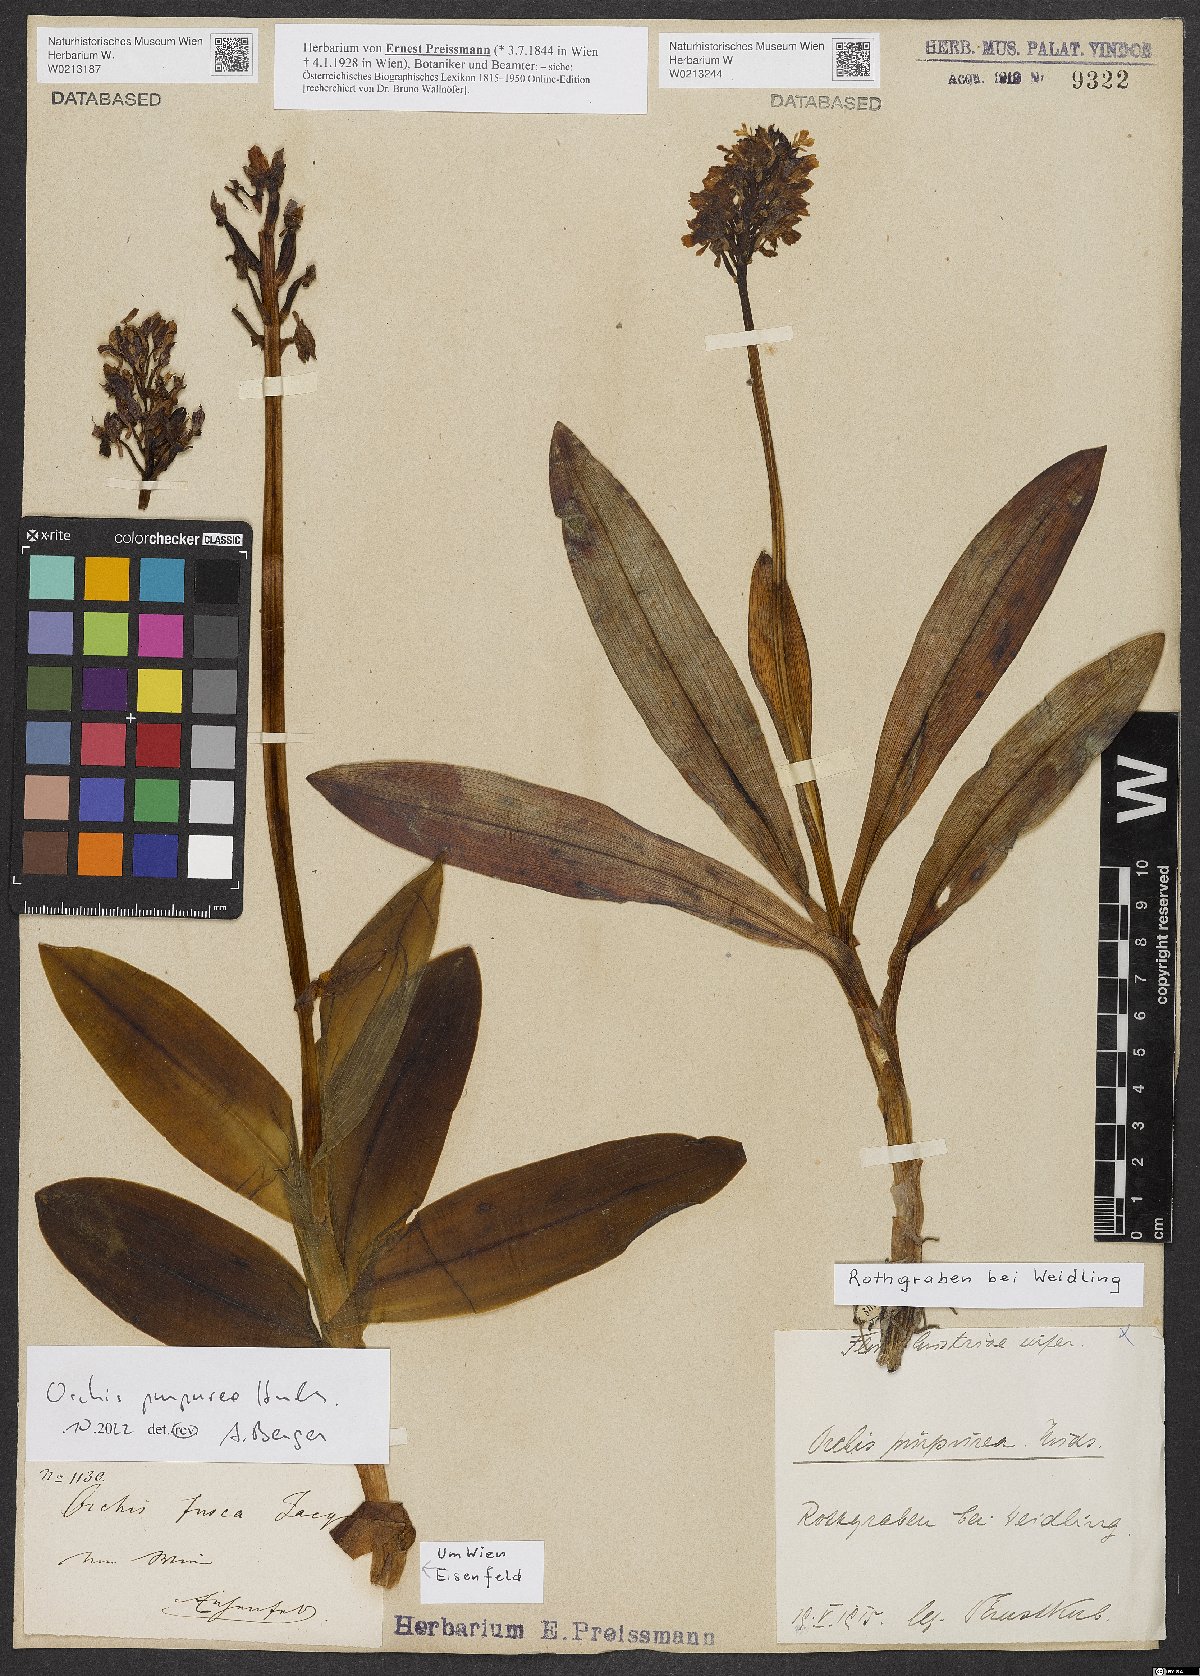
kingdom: Plantae
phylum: Tracheophyta
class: Liliopsida
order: Asparagales
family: Orchidaceae
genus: Orchis
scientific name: Orchis purpurea
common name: Lady orchid
